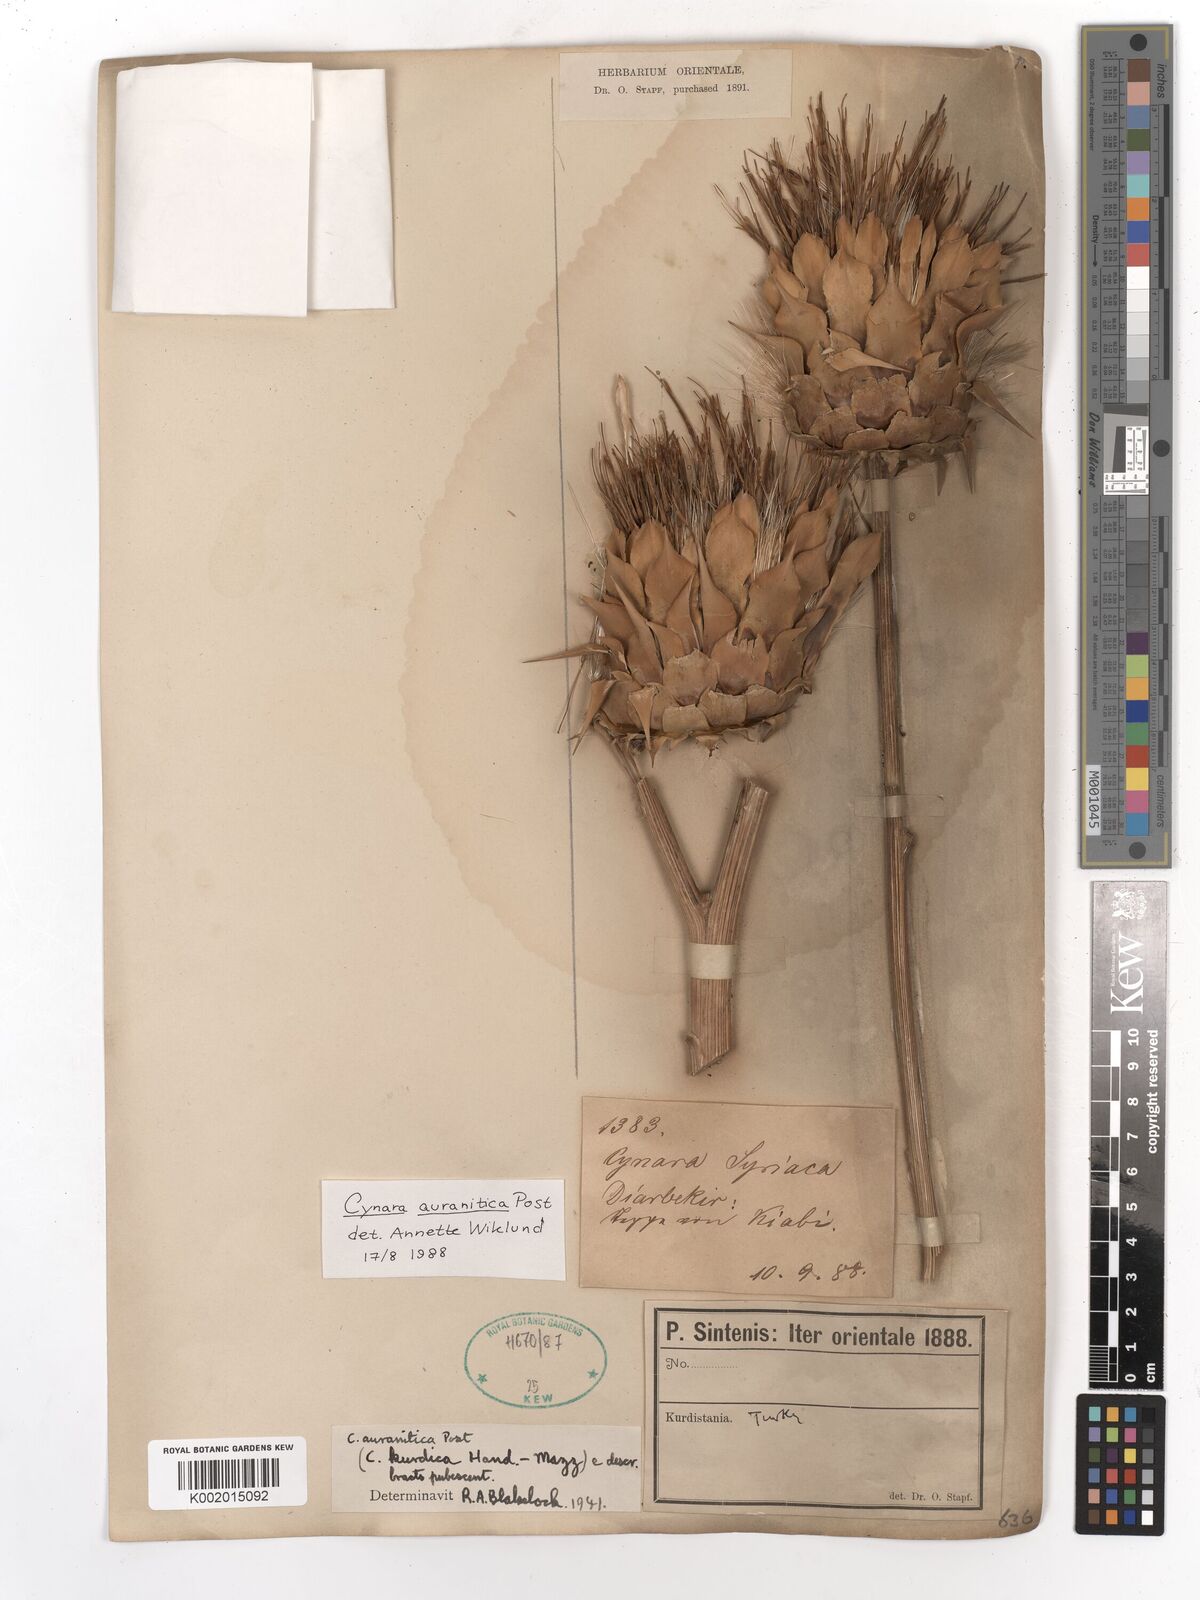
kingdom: Plantae
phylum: Tracheophyta
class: Magnoliopsida
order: Asterales
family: Asteraceae
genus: Cynara
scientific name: Cynara auranitica
